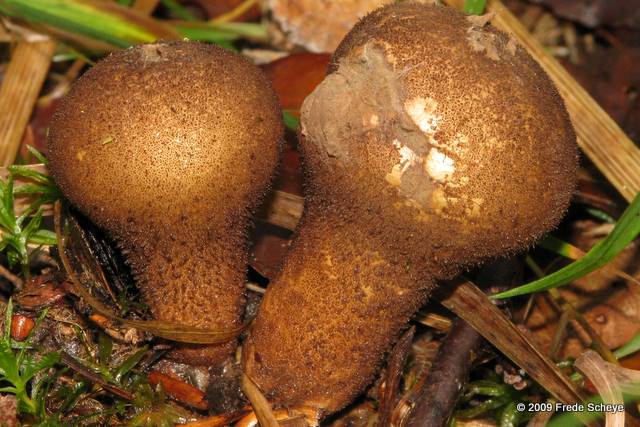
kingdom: Fungi
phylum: Basidiomycota
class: Agaricomycetes
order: Agaricales
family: Lycoperdaceae
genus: Lycoperdon
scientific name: Lycoperdon molle
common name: skov-støvbold
